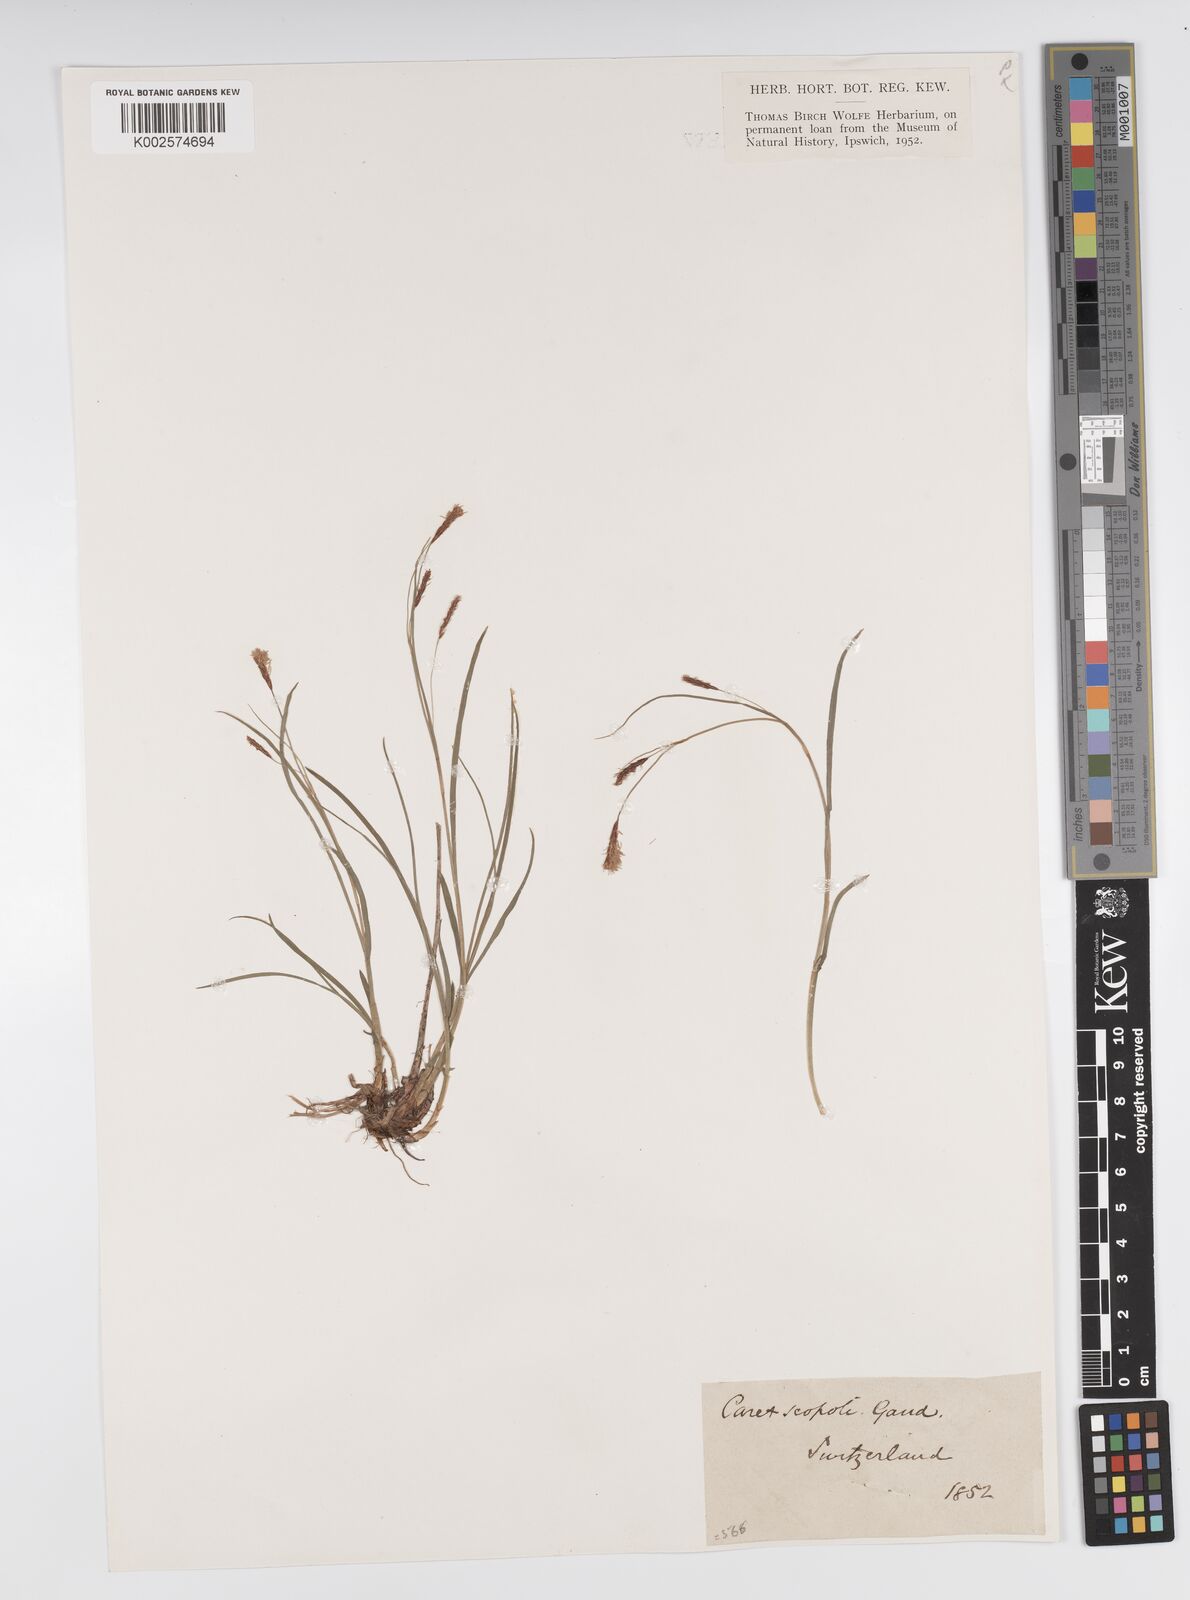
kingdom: Plantae
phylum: Tracheophyta
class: Liliopsida
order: Poales
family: Cyperaceae
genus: Carex
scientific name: Carex ferruginea
